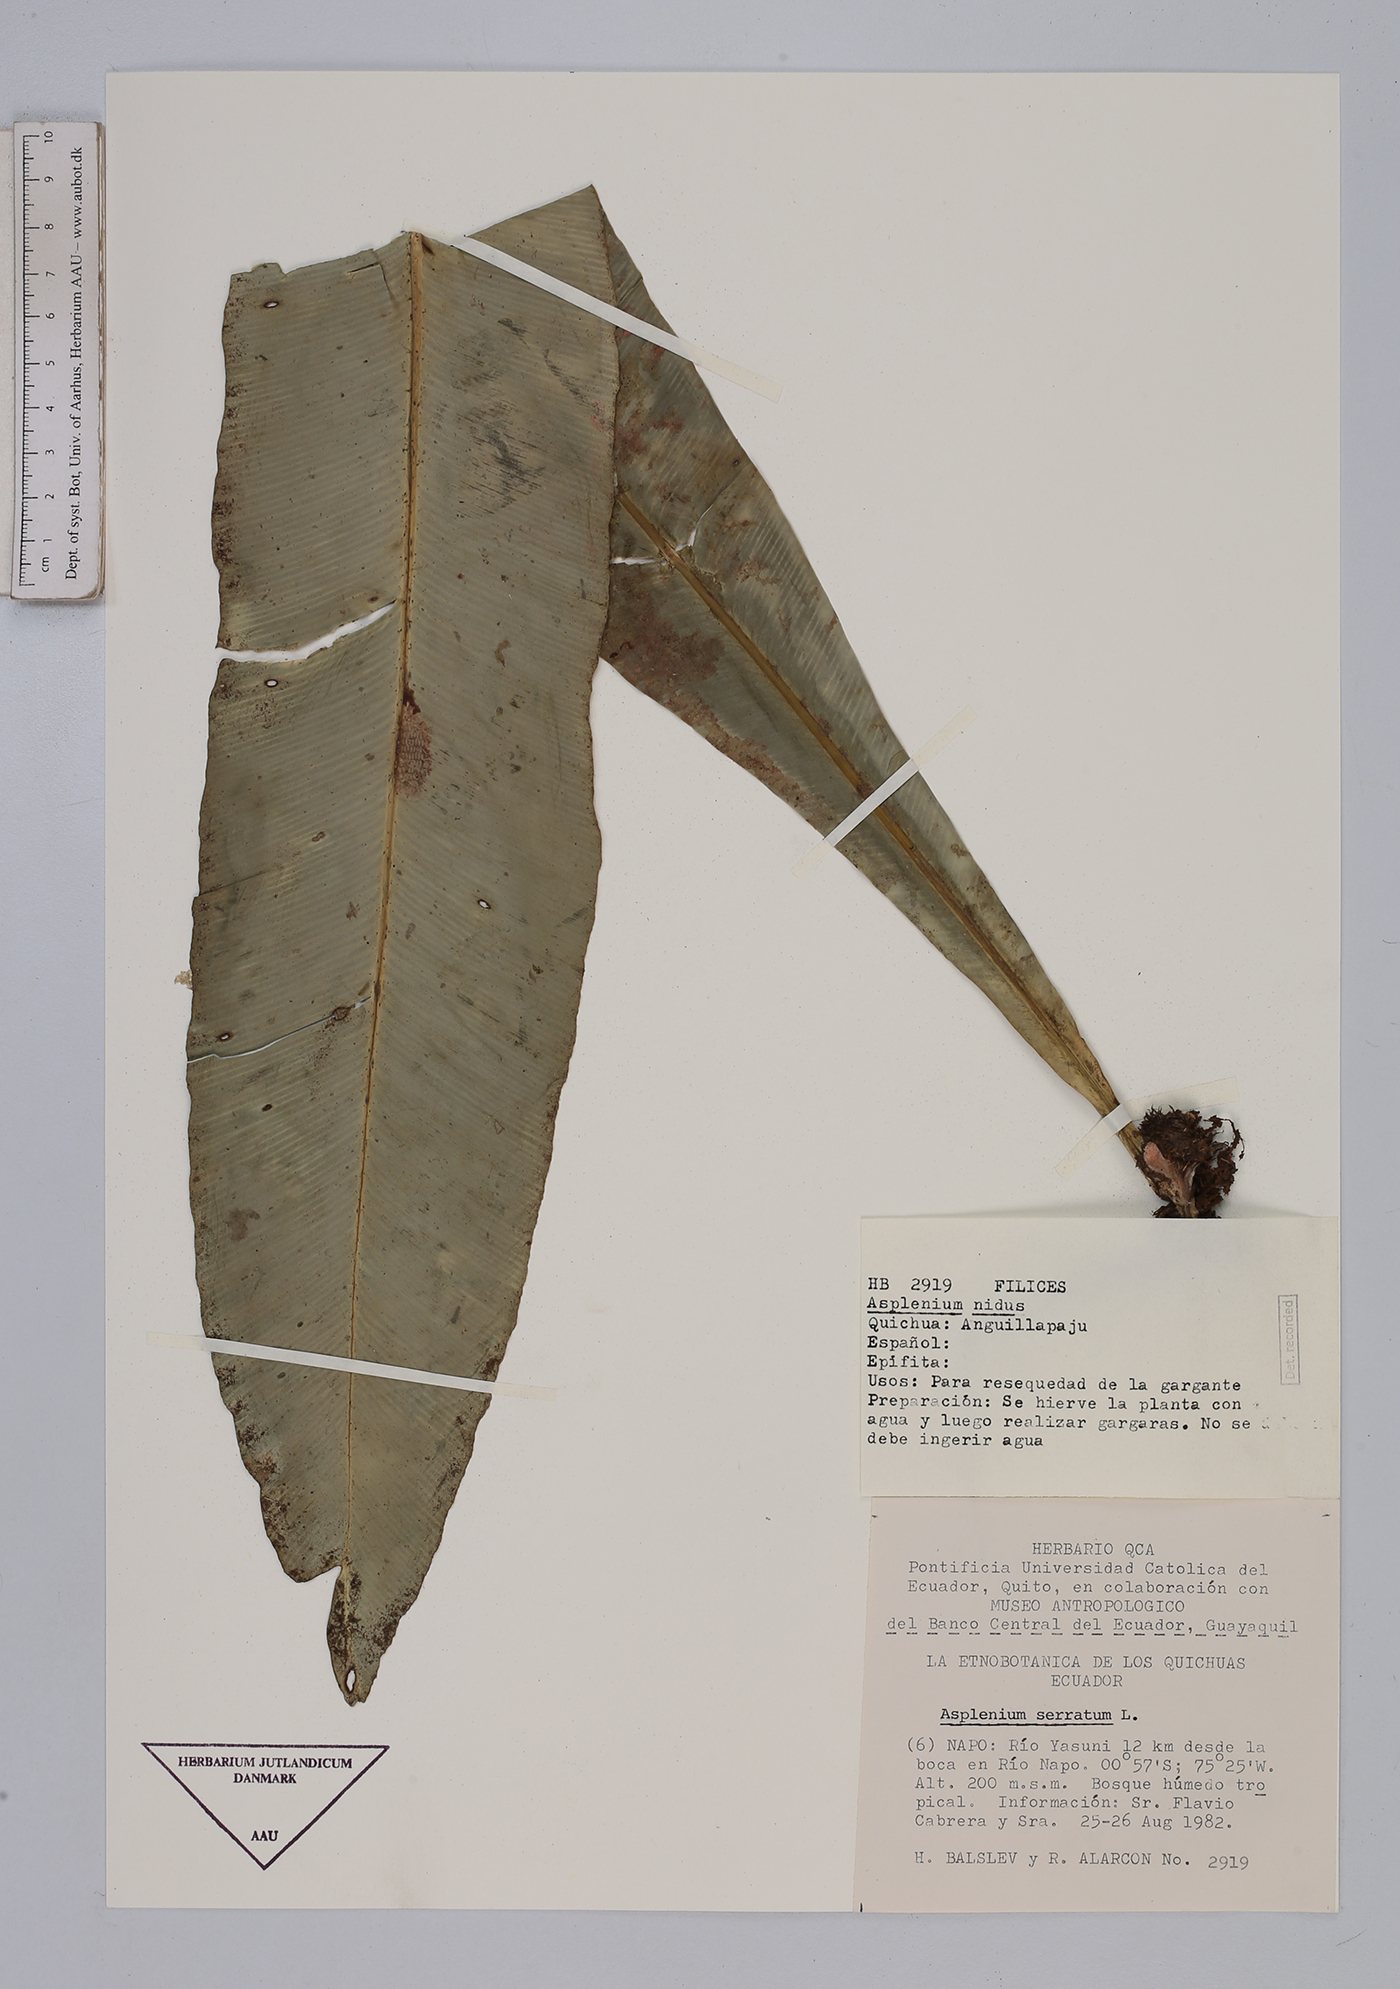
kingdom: Plantae
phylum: Tracheophyta
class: Polypodiopsida
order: Polypodiales
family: Aspleniaceae
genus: Asplenium
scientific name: Asplenium nidus
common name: Bird's-nest fern
